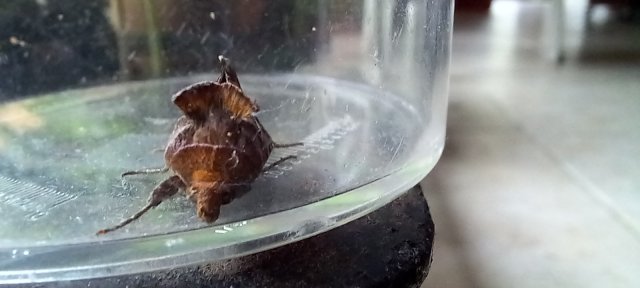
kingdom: Animalia
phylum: Arthropoda
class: Insecta
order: Lepidoptera
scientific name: Lepidoptera
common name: Butterflies
